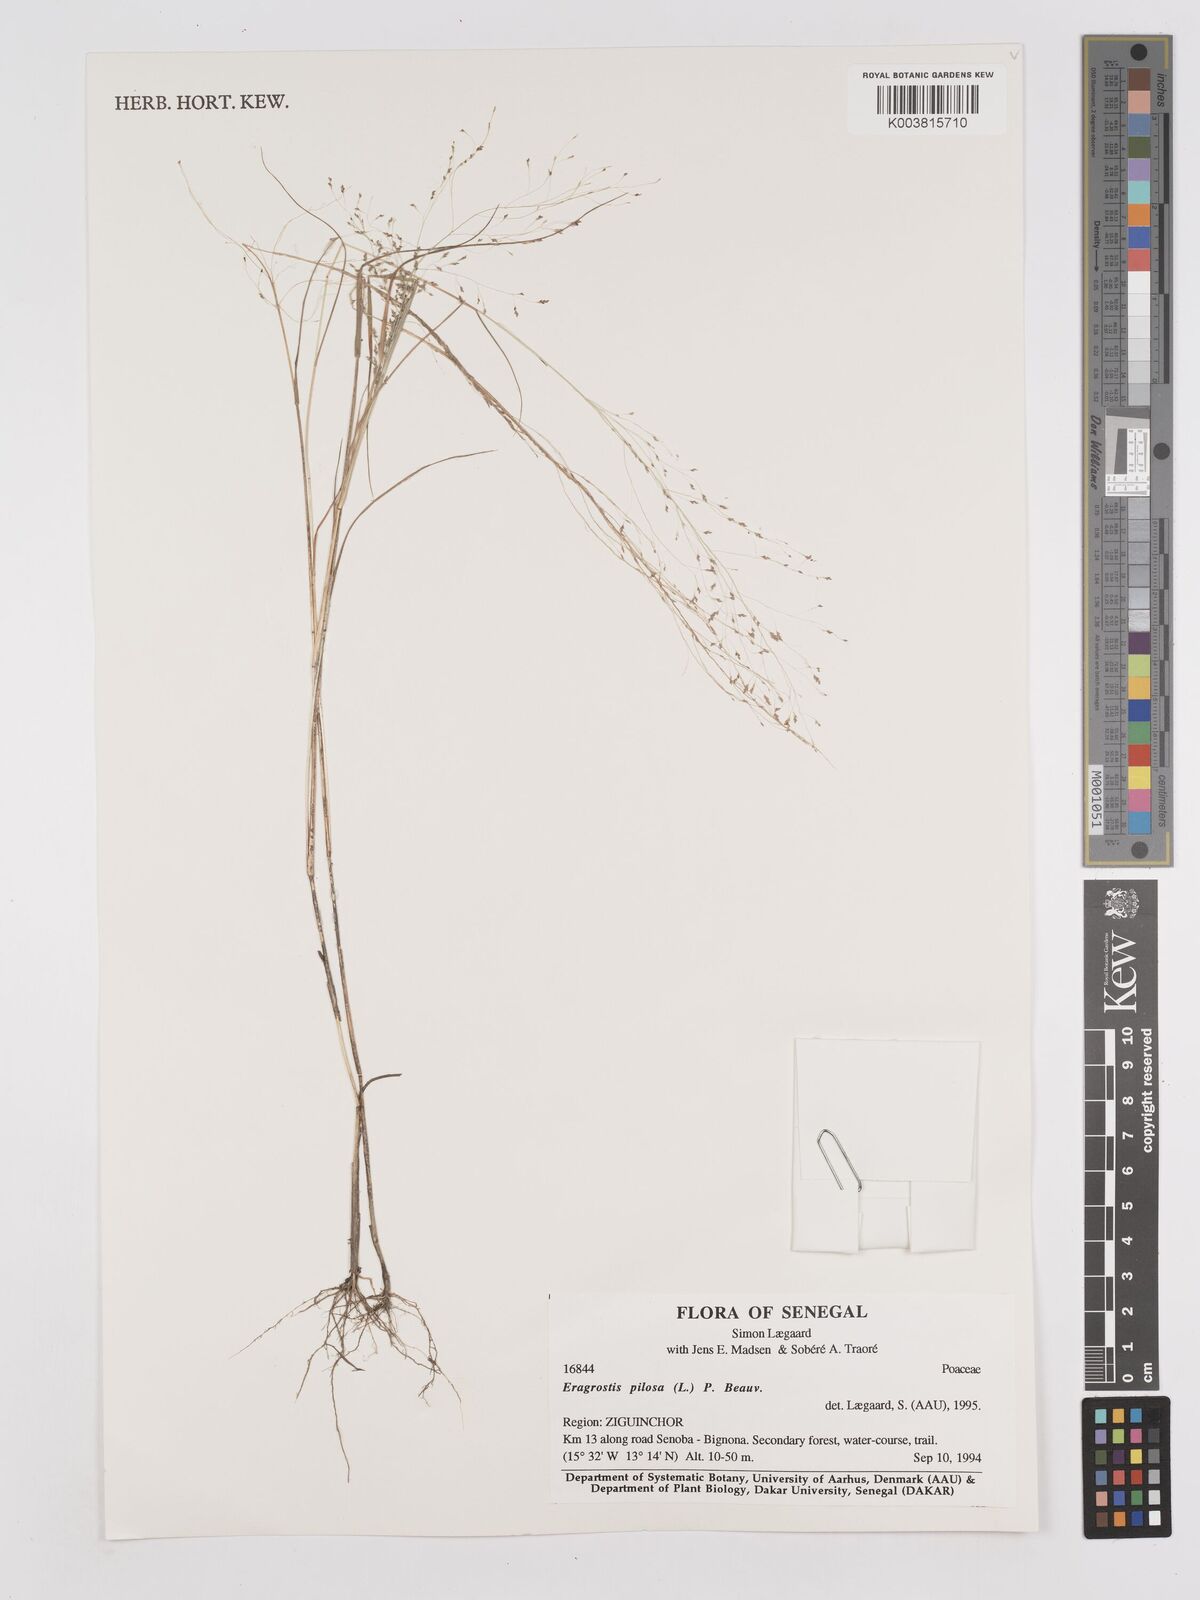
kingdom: Plantae
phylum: Tracheophyta
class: Liliopsida
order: Poales
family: Poaceae
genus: Eragrostis
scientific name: Eragrostis pilosa
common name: Indian lovegrass
